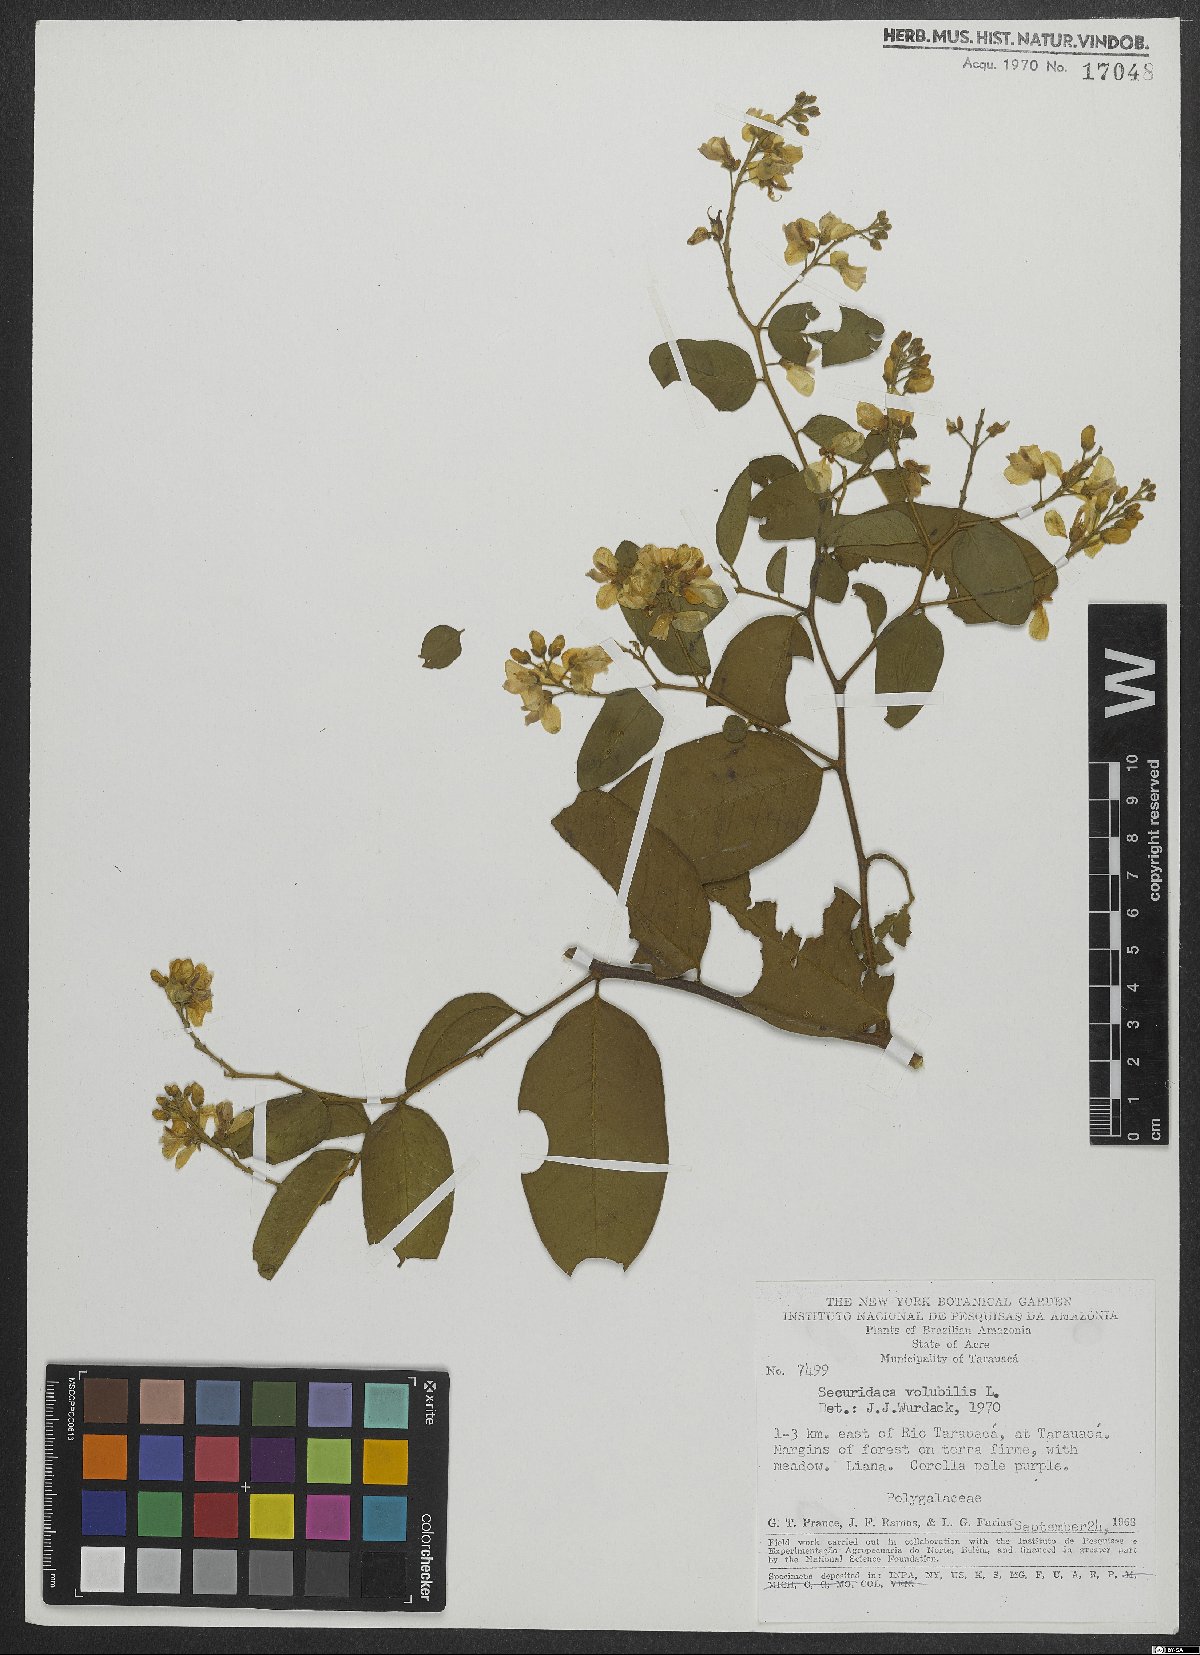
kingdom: Plantae
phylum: Tracheophyta
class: Magnoliopsida
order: Fabales
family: Polygalaceae
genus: Securidaca
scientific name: Securidaca
